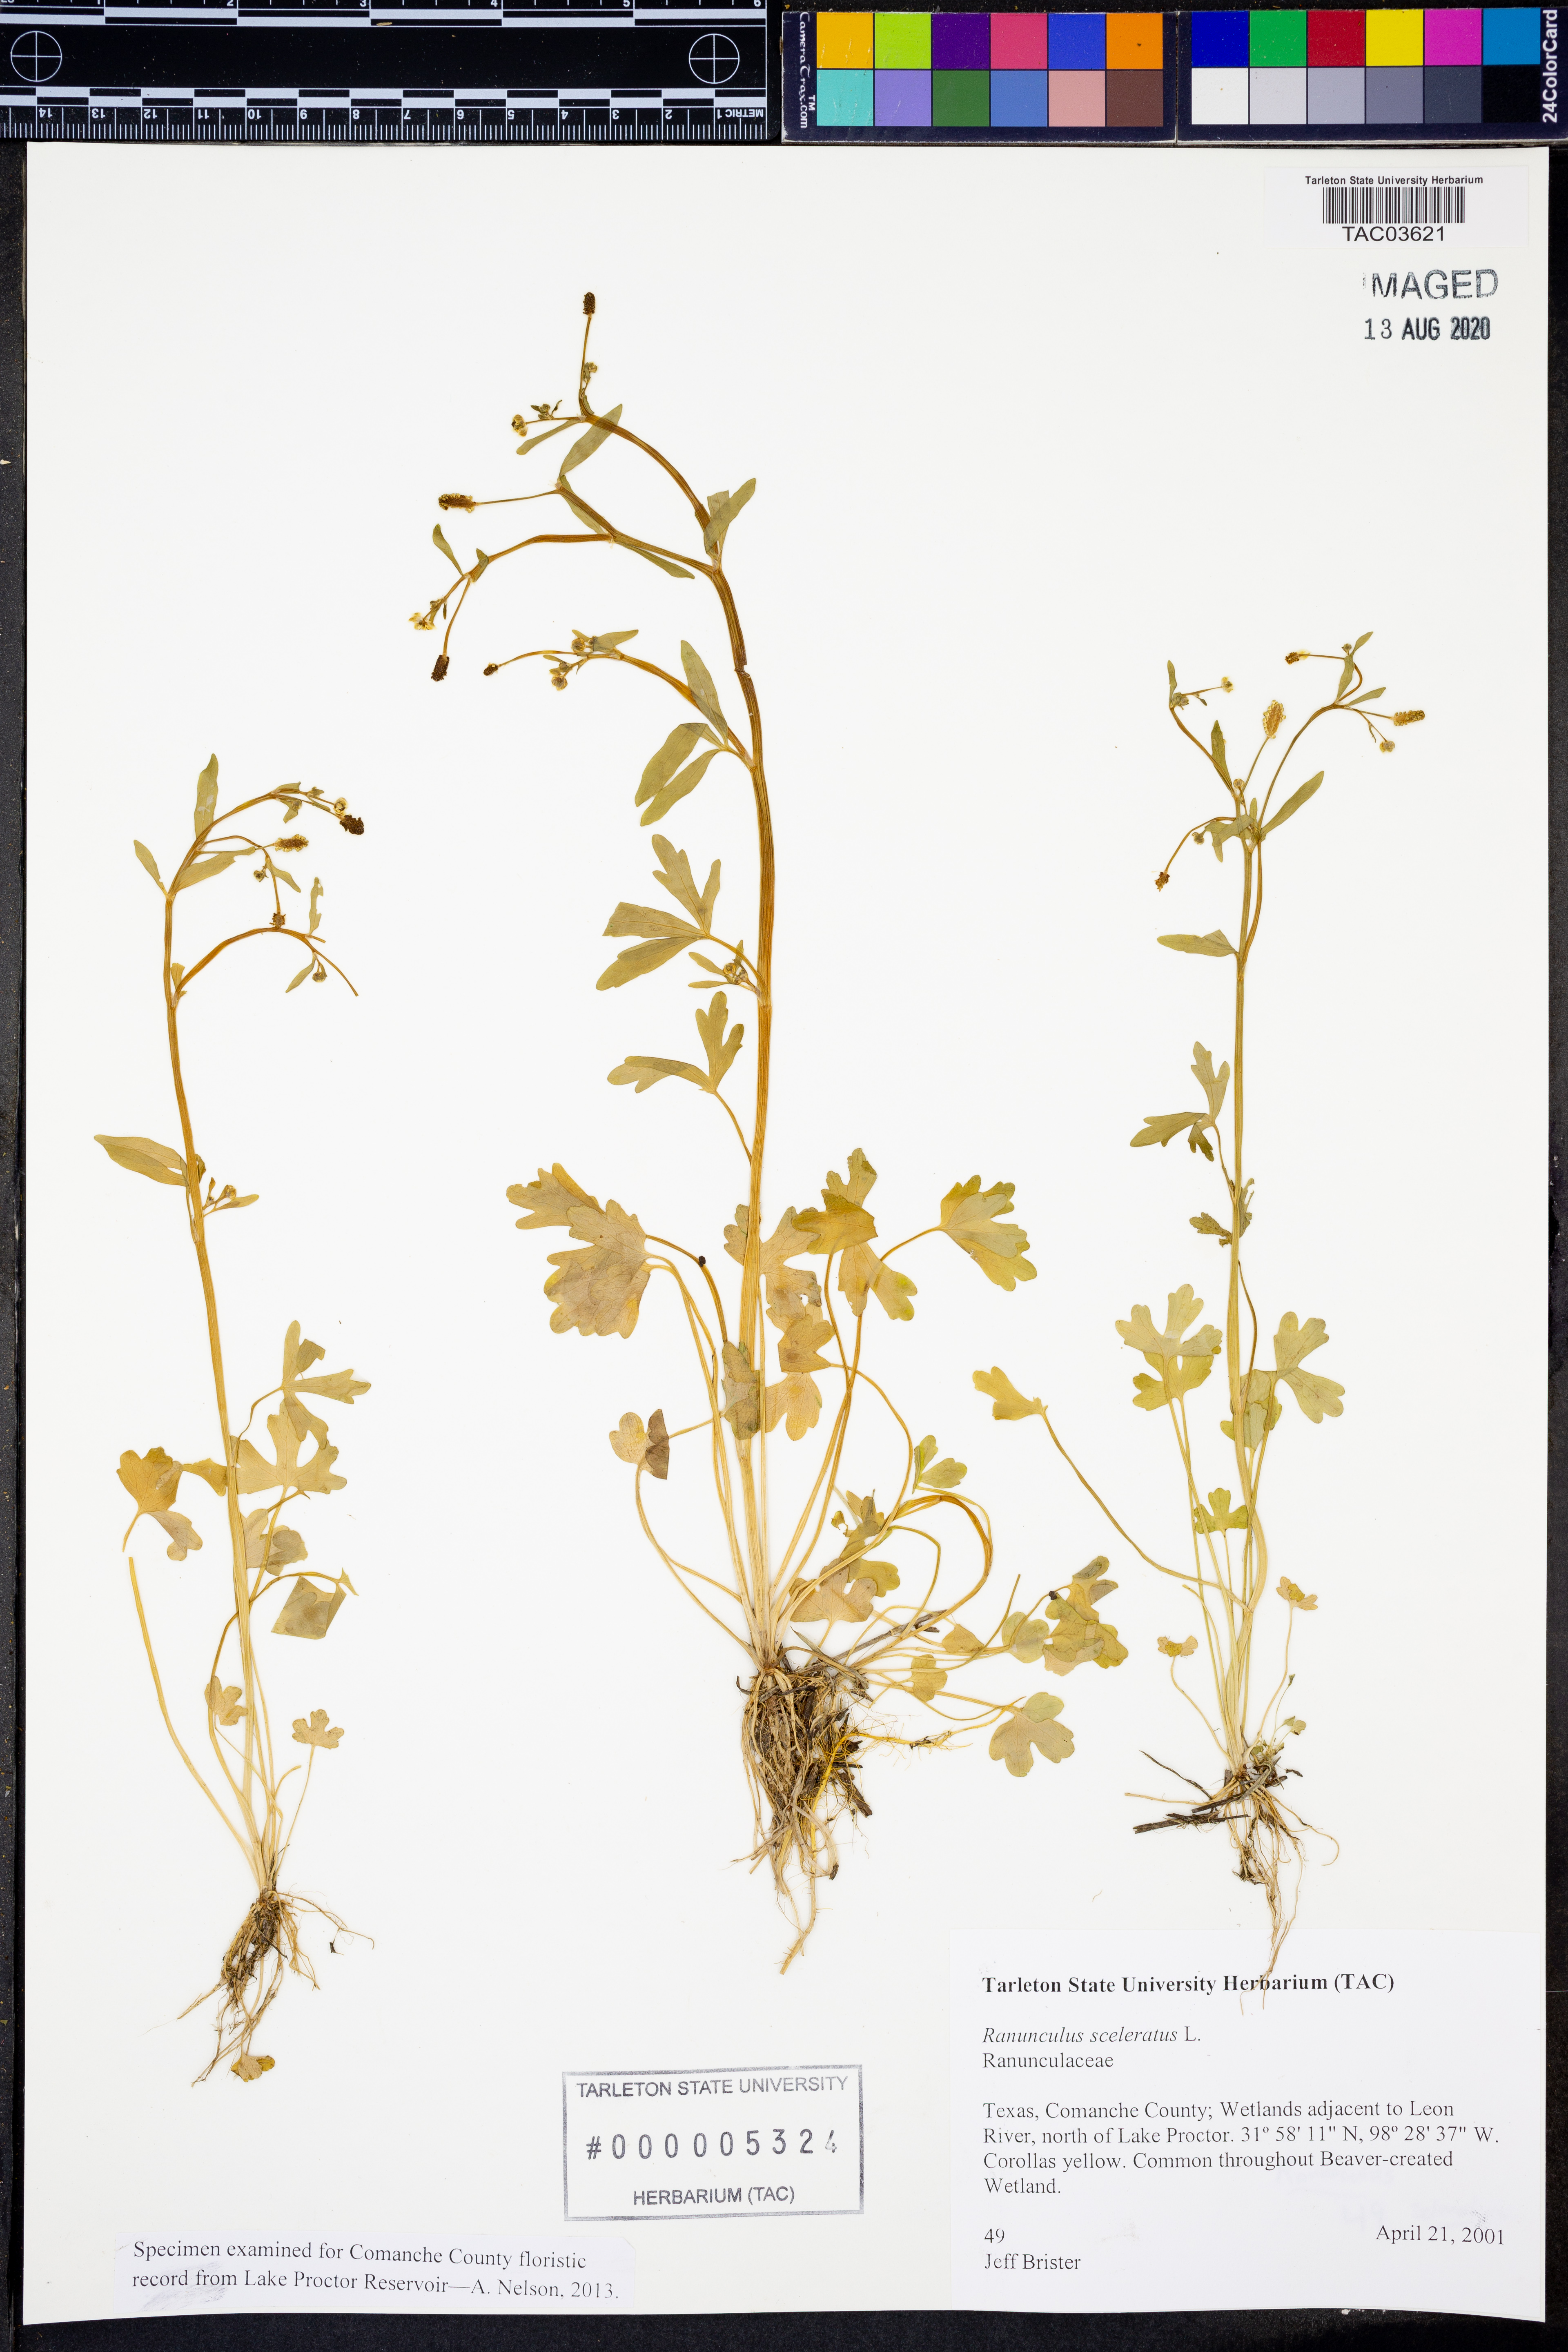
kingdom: Plantae
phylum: Tracheophyta
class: Magnoliopsida
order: Ranunculales
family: Ranunculaceae
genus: Ranunculus
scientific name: Ranunculus sceleratus
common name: Celery-leaved buttercup
